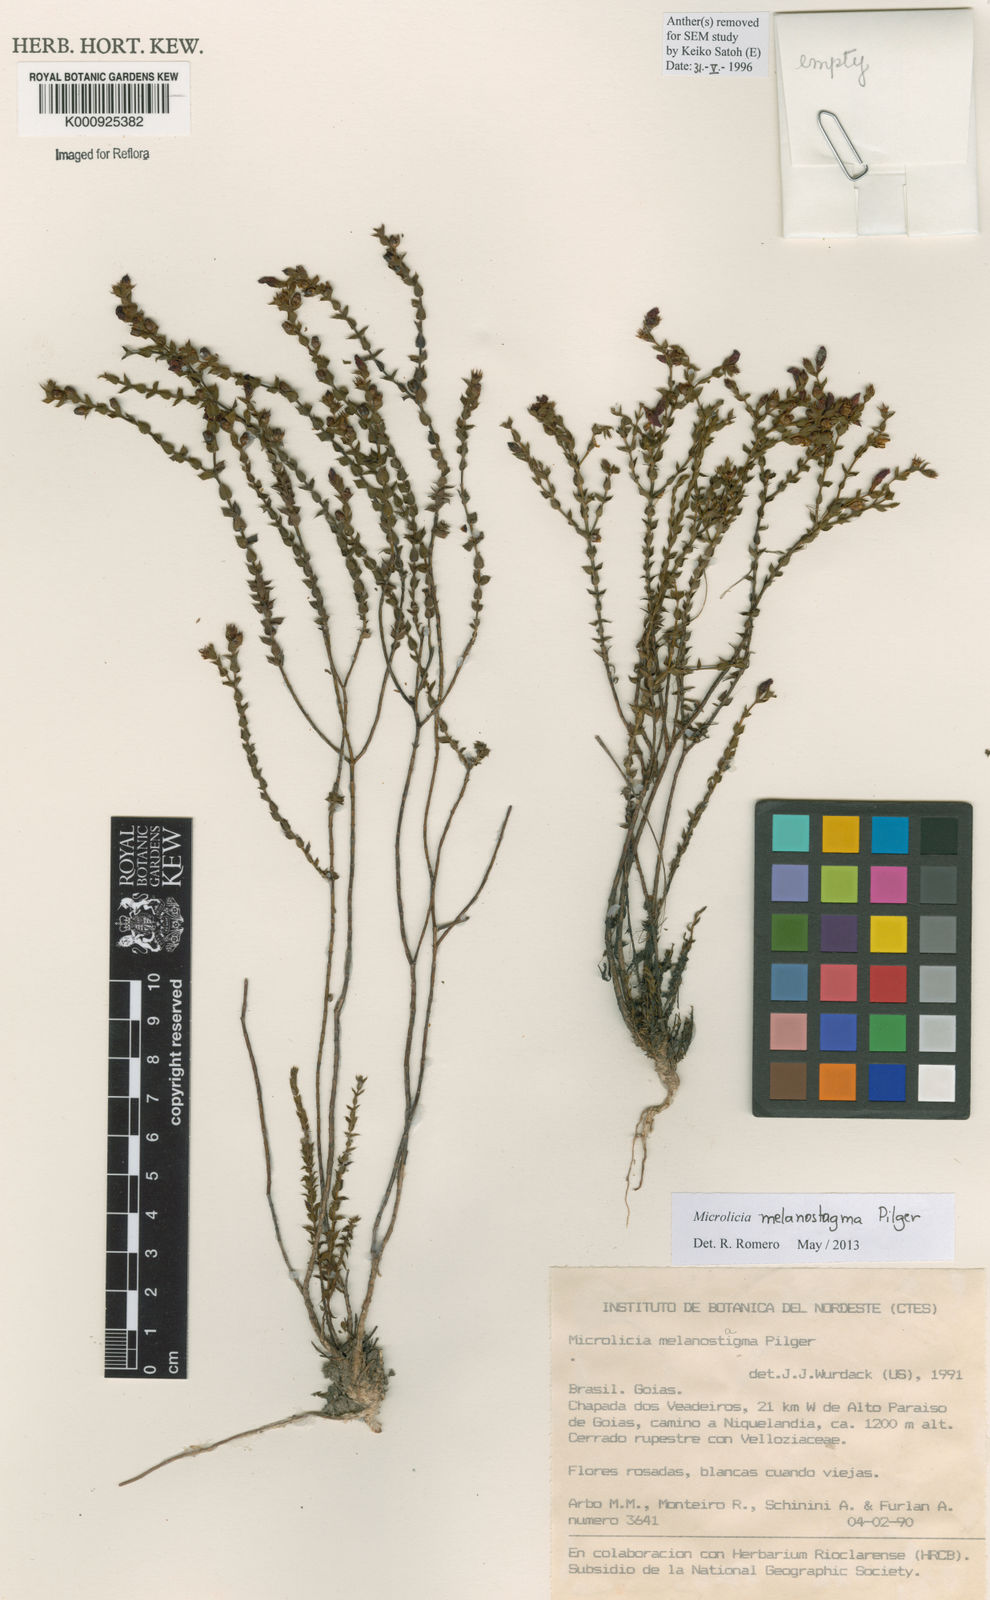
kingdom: Plantae
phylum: Tracheophyta
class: Magnoliopsida
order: Myrtales
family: Melastomataceae
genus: Microlicia
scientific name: Microlicia melanostagma
